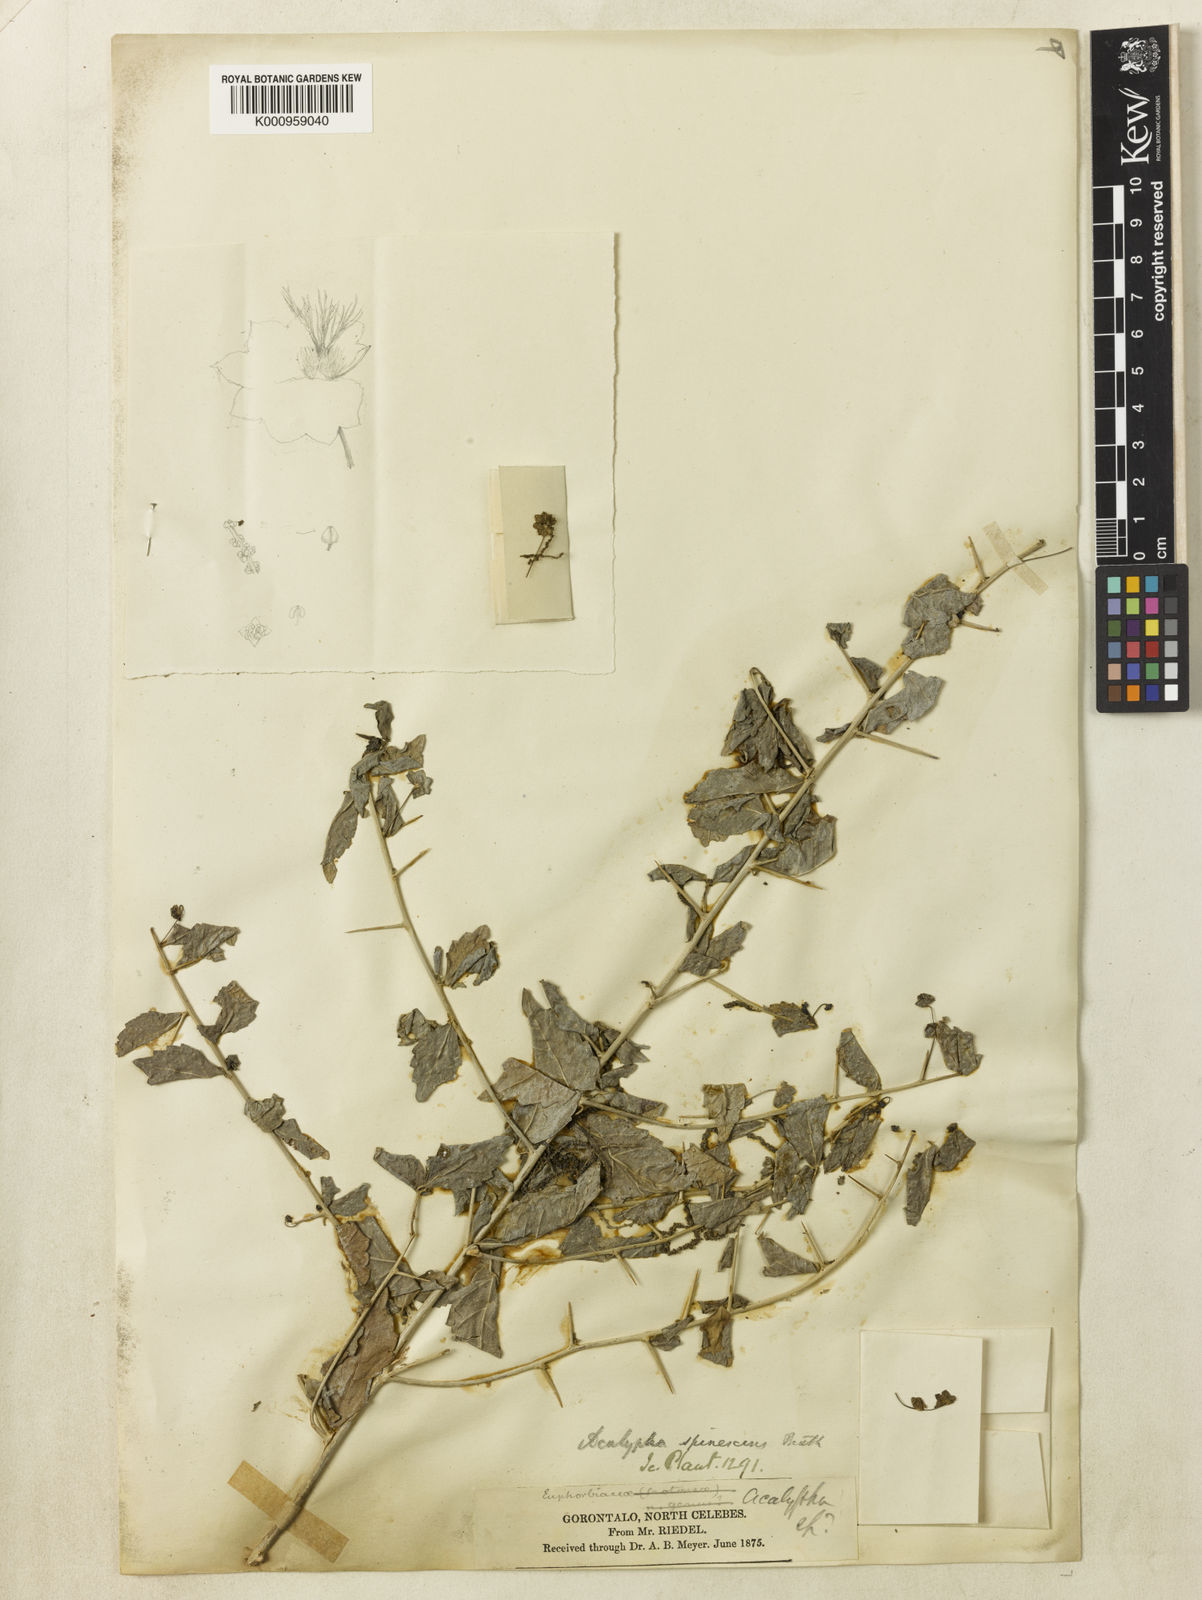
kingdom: Plantae
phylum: Tracheophyta
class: Magnoliopsida
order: Malpighiales
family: Euphorbiaceae
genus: Acalypha
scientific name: Acalypha
